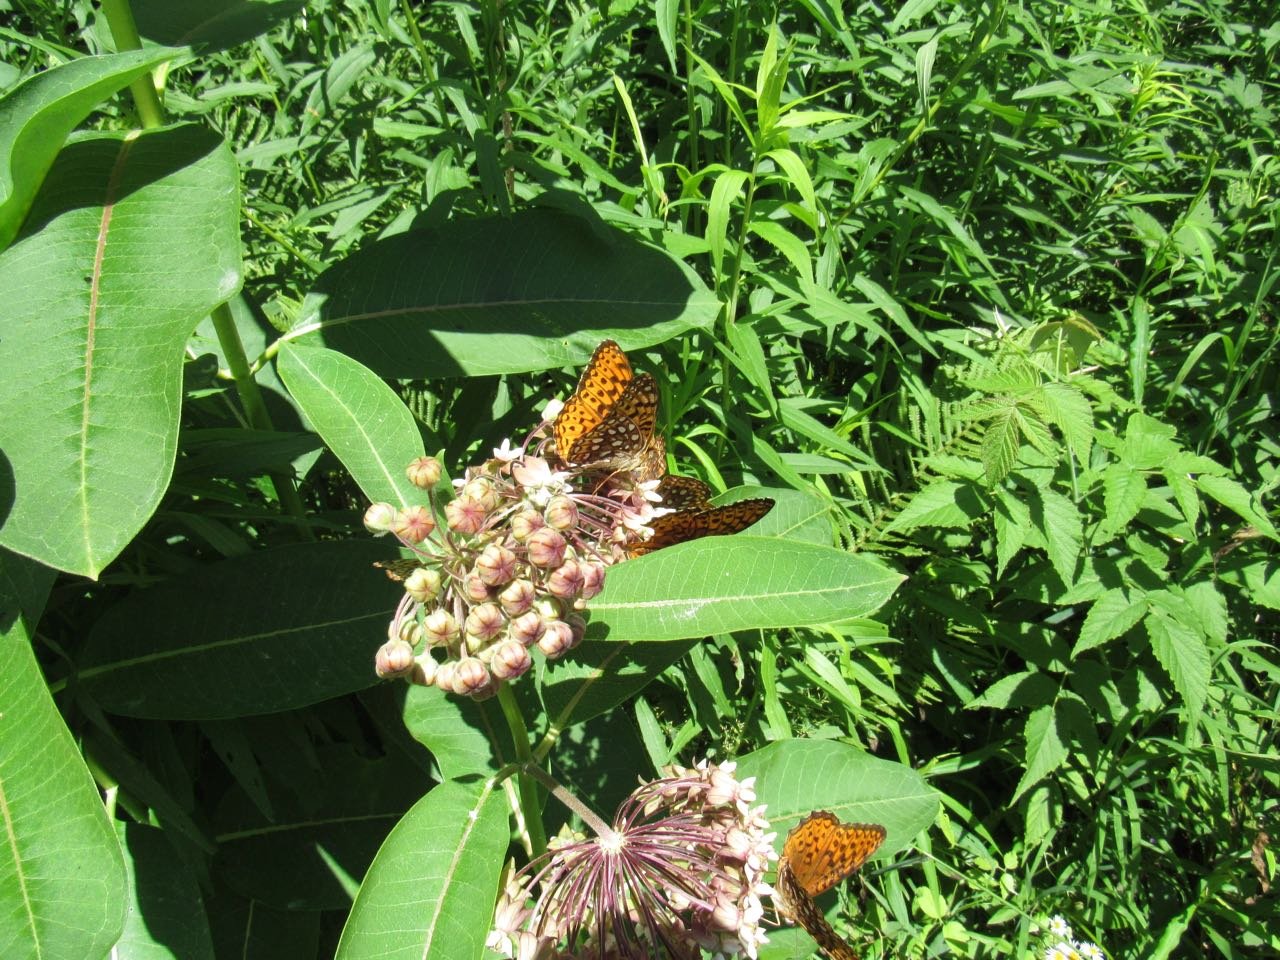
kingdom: Animalia
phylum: Arthropoda
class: Insecta
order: Lepidoptera
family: Nymphalidae
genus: Speyeria
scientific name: Speyeria atlantis
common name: Atlantis Fritillary
